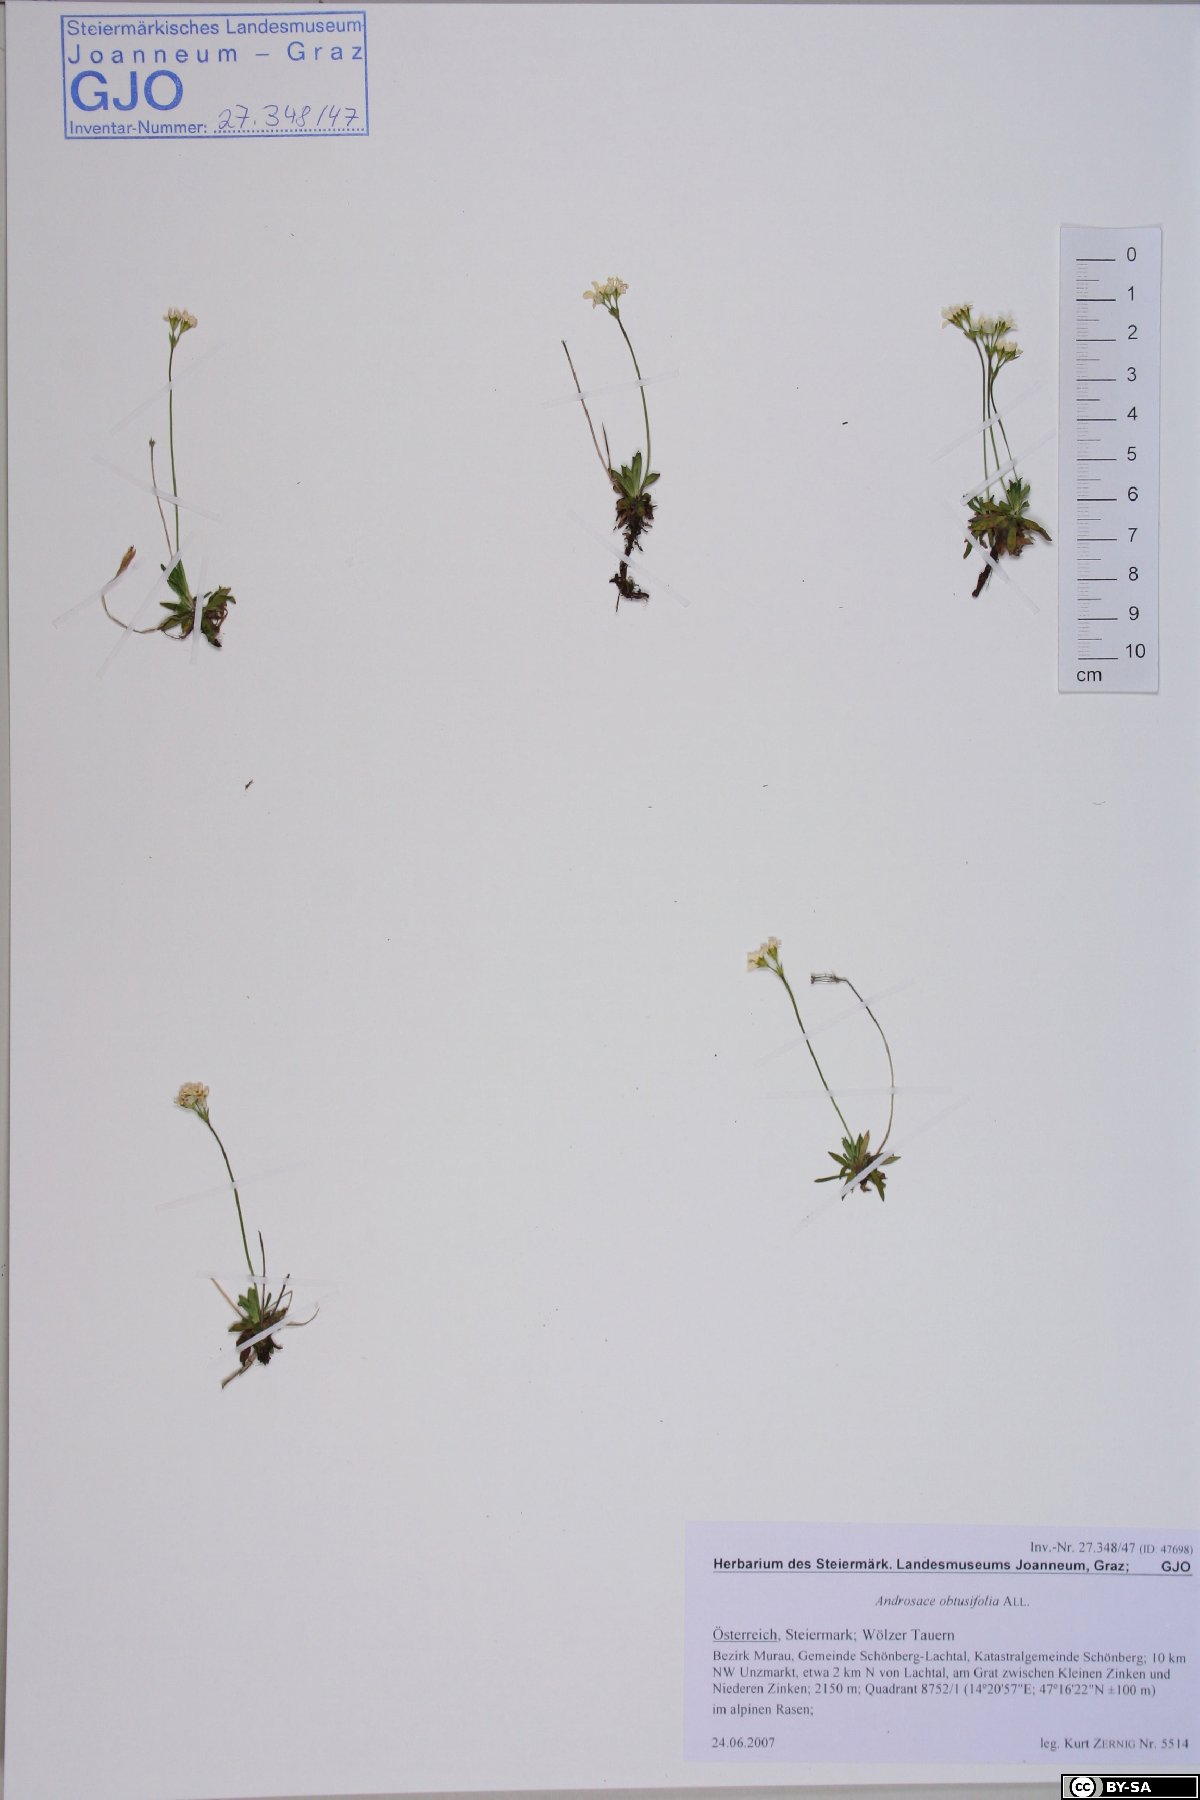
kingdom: Plantae
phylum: Tracheophyta
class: Magnoliopsida
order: Ericales
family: Primulaceae
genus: Androsace
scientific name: Androsace obtusifolia
